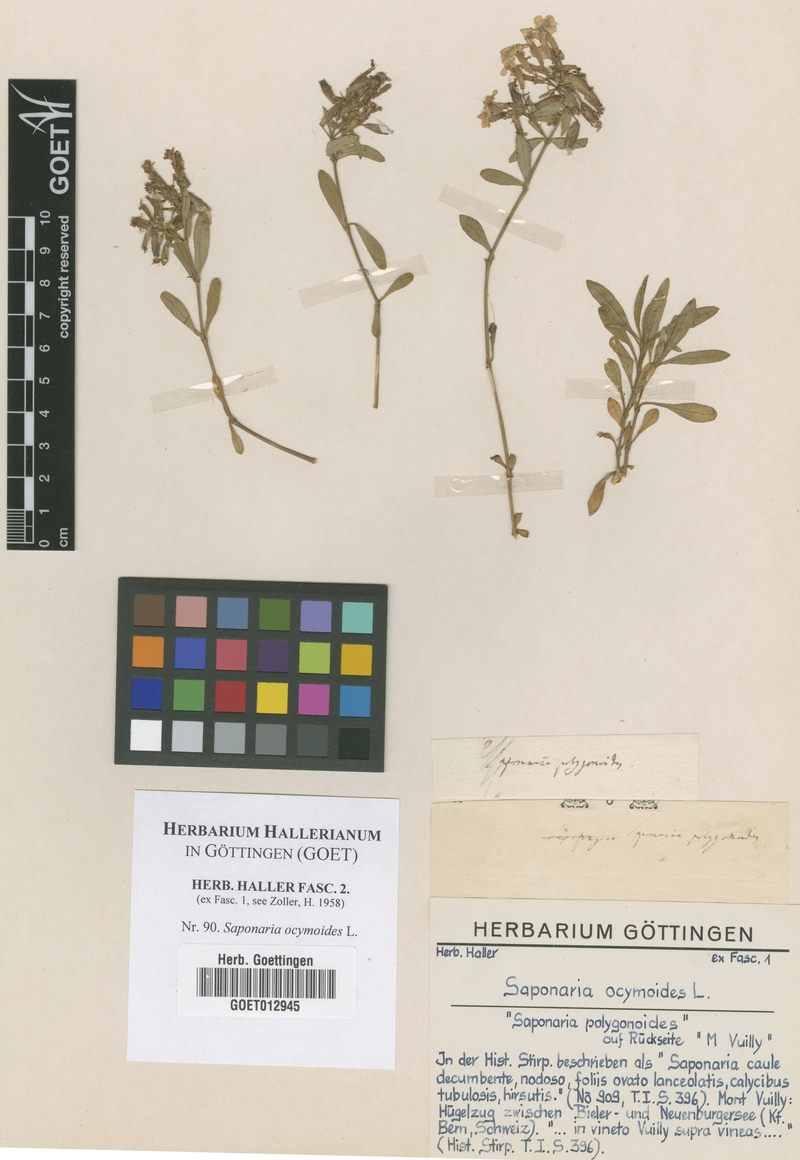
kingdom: Plantae
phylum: Tracheophyta
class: Magnoliopsida
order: Caryophyllales
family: Caryophyllaceae
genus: Saponaria
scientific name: Saponaria ocymoides
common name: Rock soapwort
